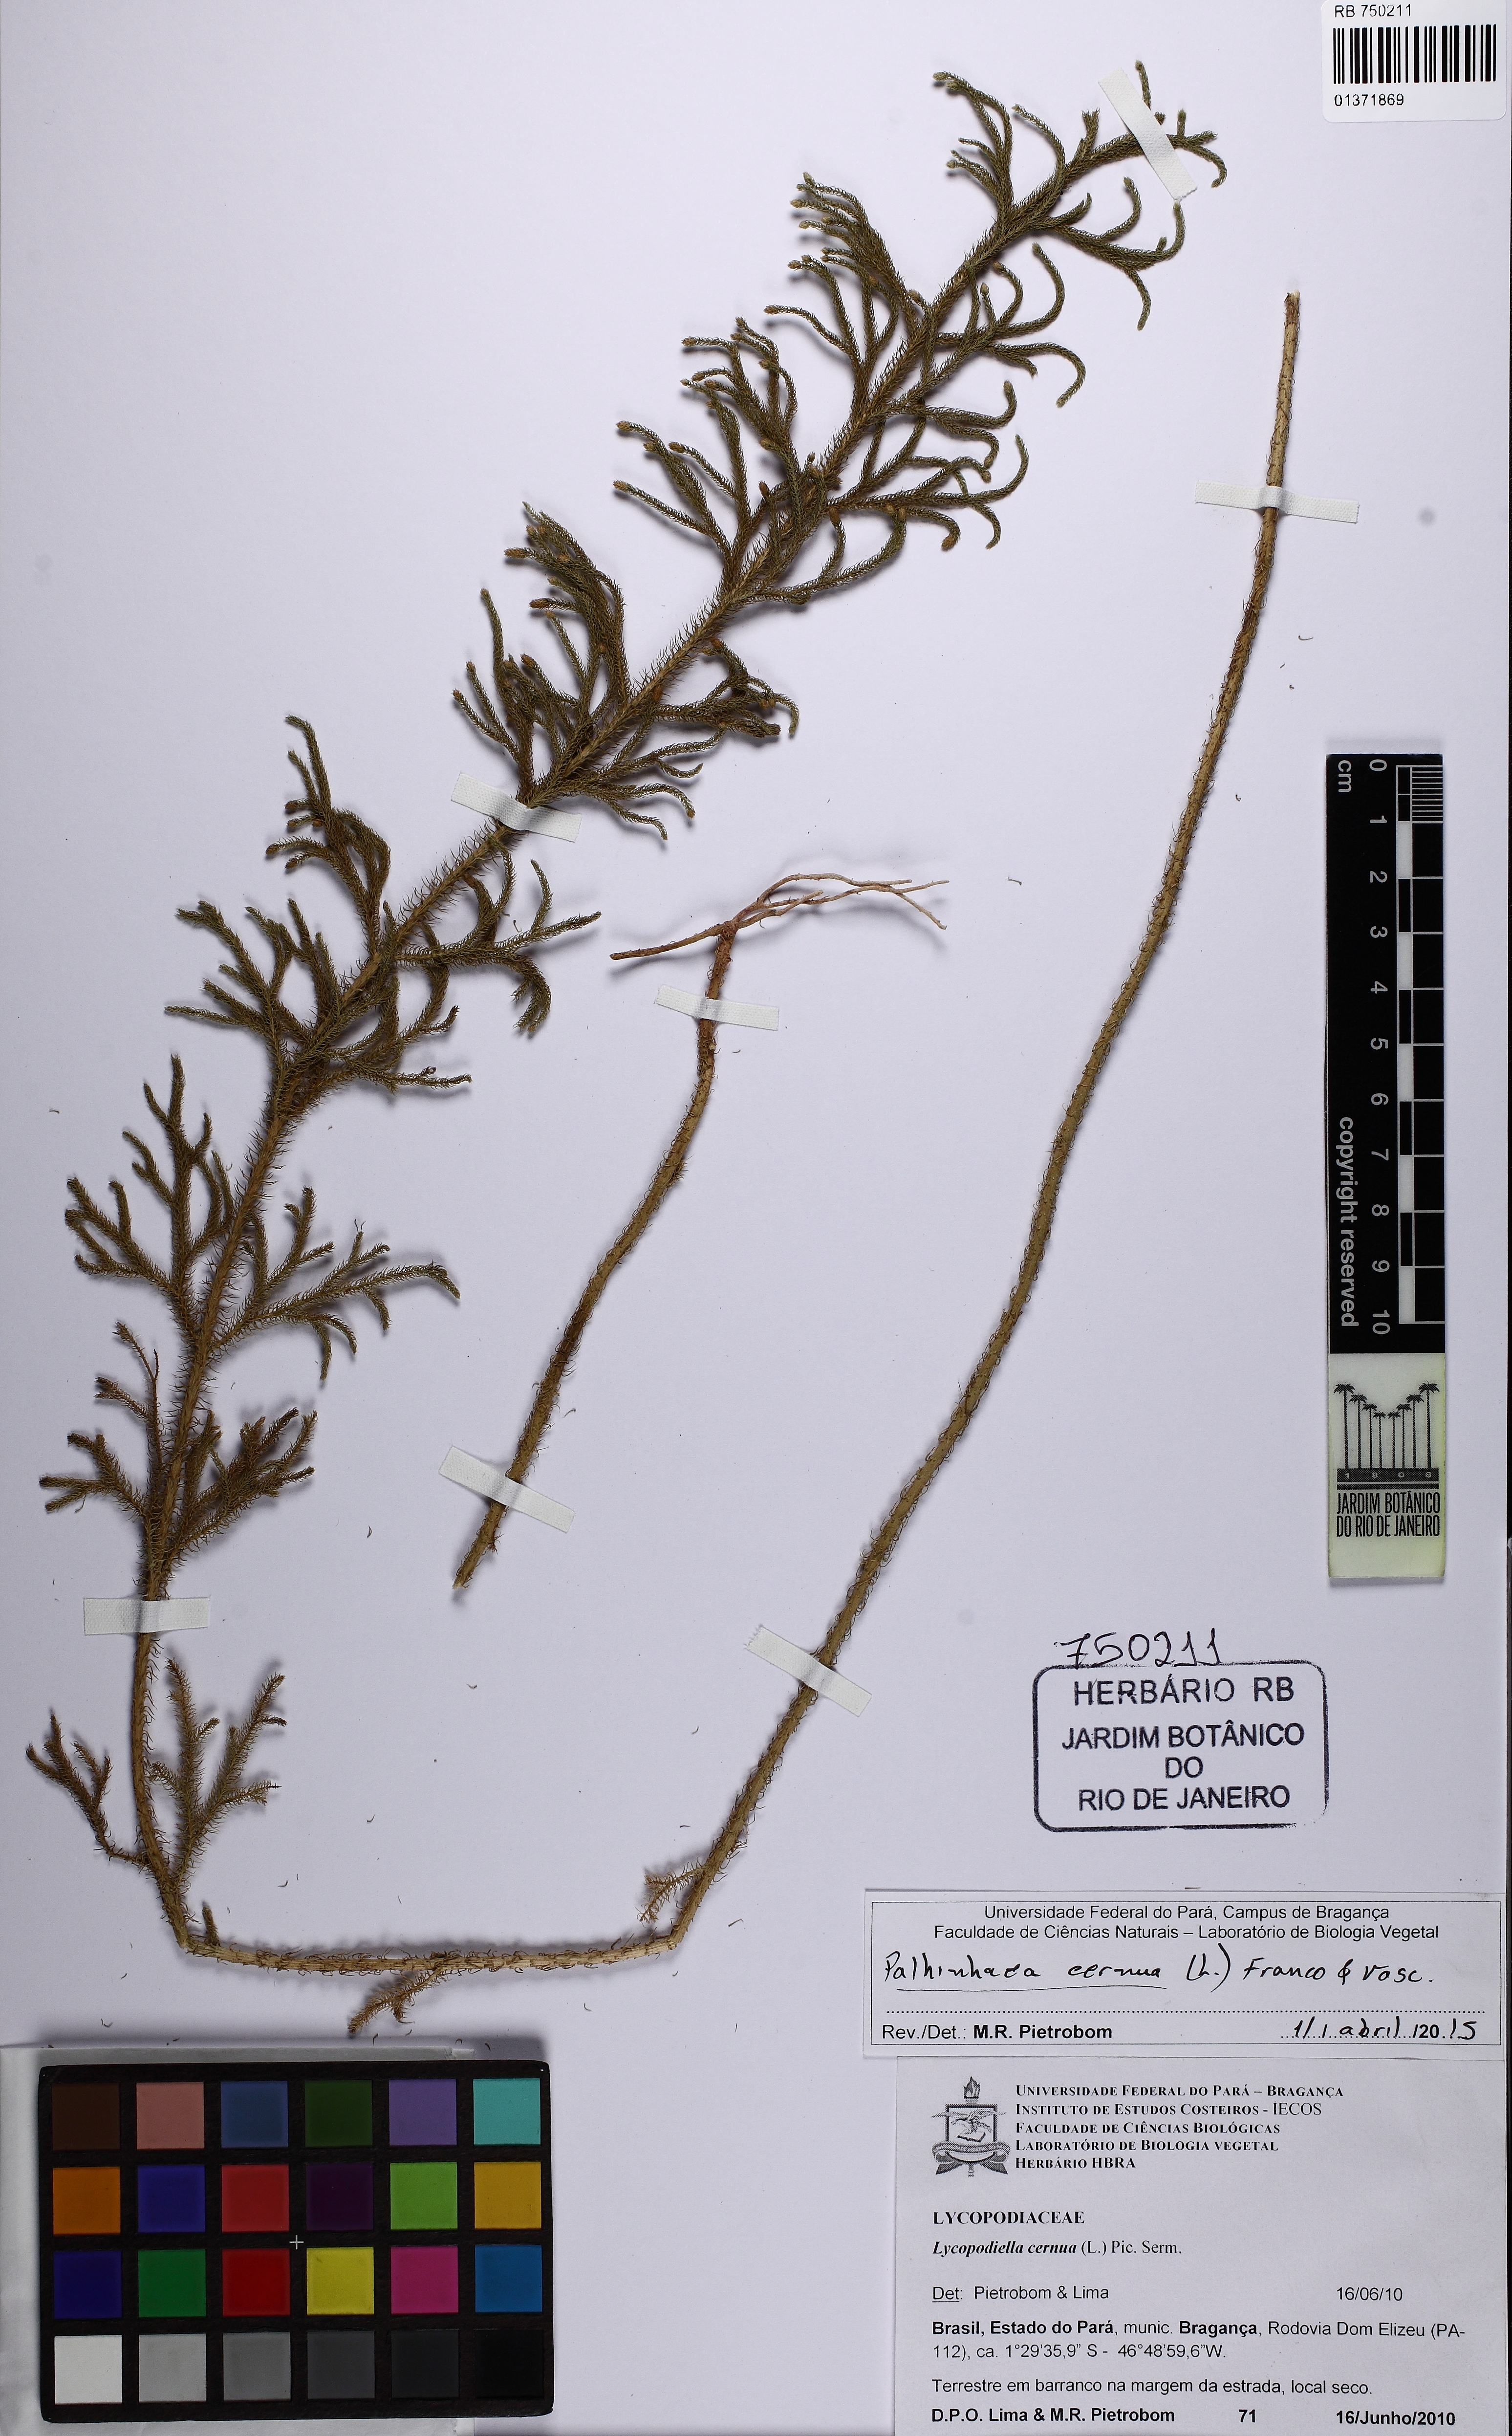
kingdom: Plantae
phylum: Tracheophyta
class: Lycopodiopsida
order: Lycopodiales
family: Lycopodiaceae
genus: Palhinhaea
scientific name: Palhinhaea cernua
